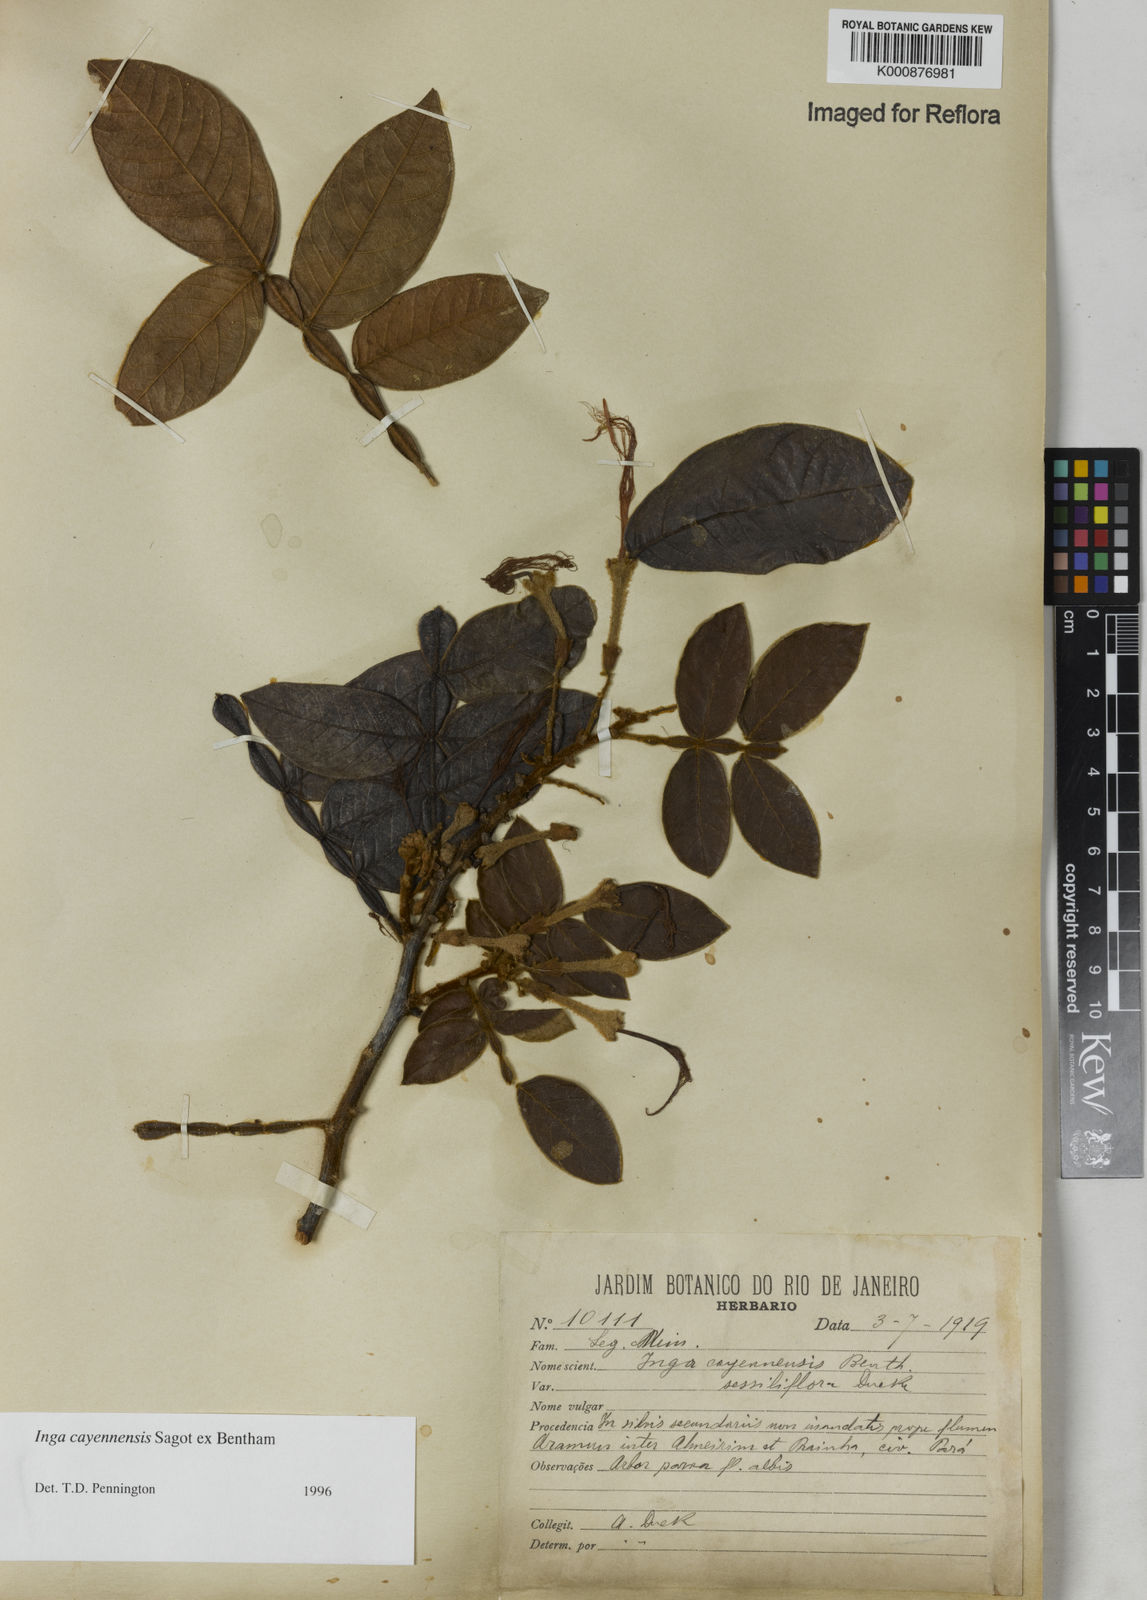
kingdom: Plantae
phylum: Tracheophyta
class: Magnoliopsida
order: Fabales
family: Fabaceae
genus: Inga
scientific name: Inga cayennensis
